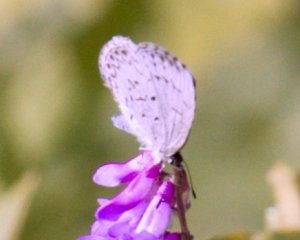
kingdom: Animalia
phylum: Arthropoda
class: Insecta
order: Lepidoptera
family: Lycaenidae
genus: Celastrina
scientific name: Celastrina
